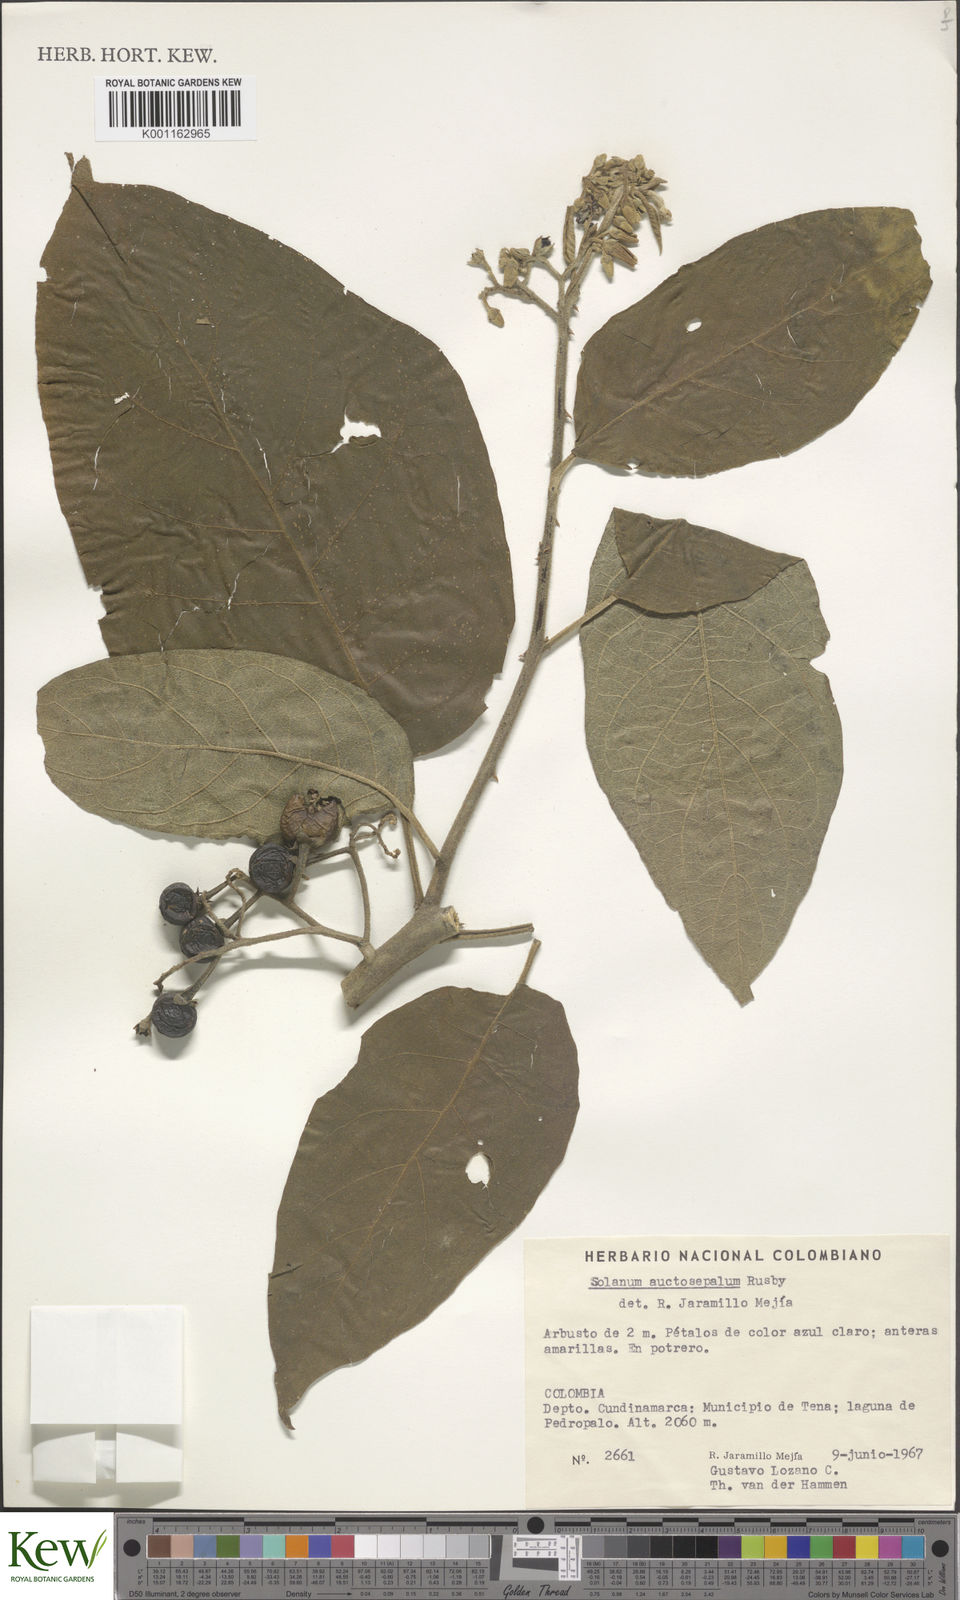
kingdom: Plantae
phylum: Tracheophyta
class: Magnoliopsida
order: Solanales
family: Solanaceae
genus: Solanum
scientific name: Solanum stellatiglandulosum
